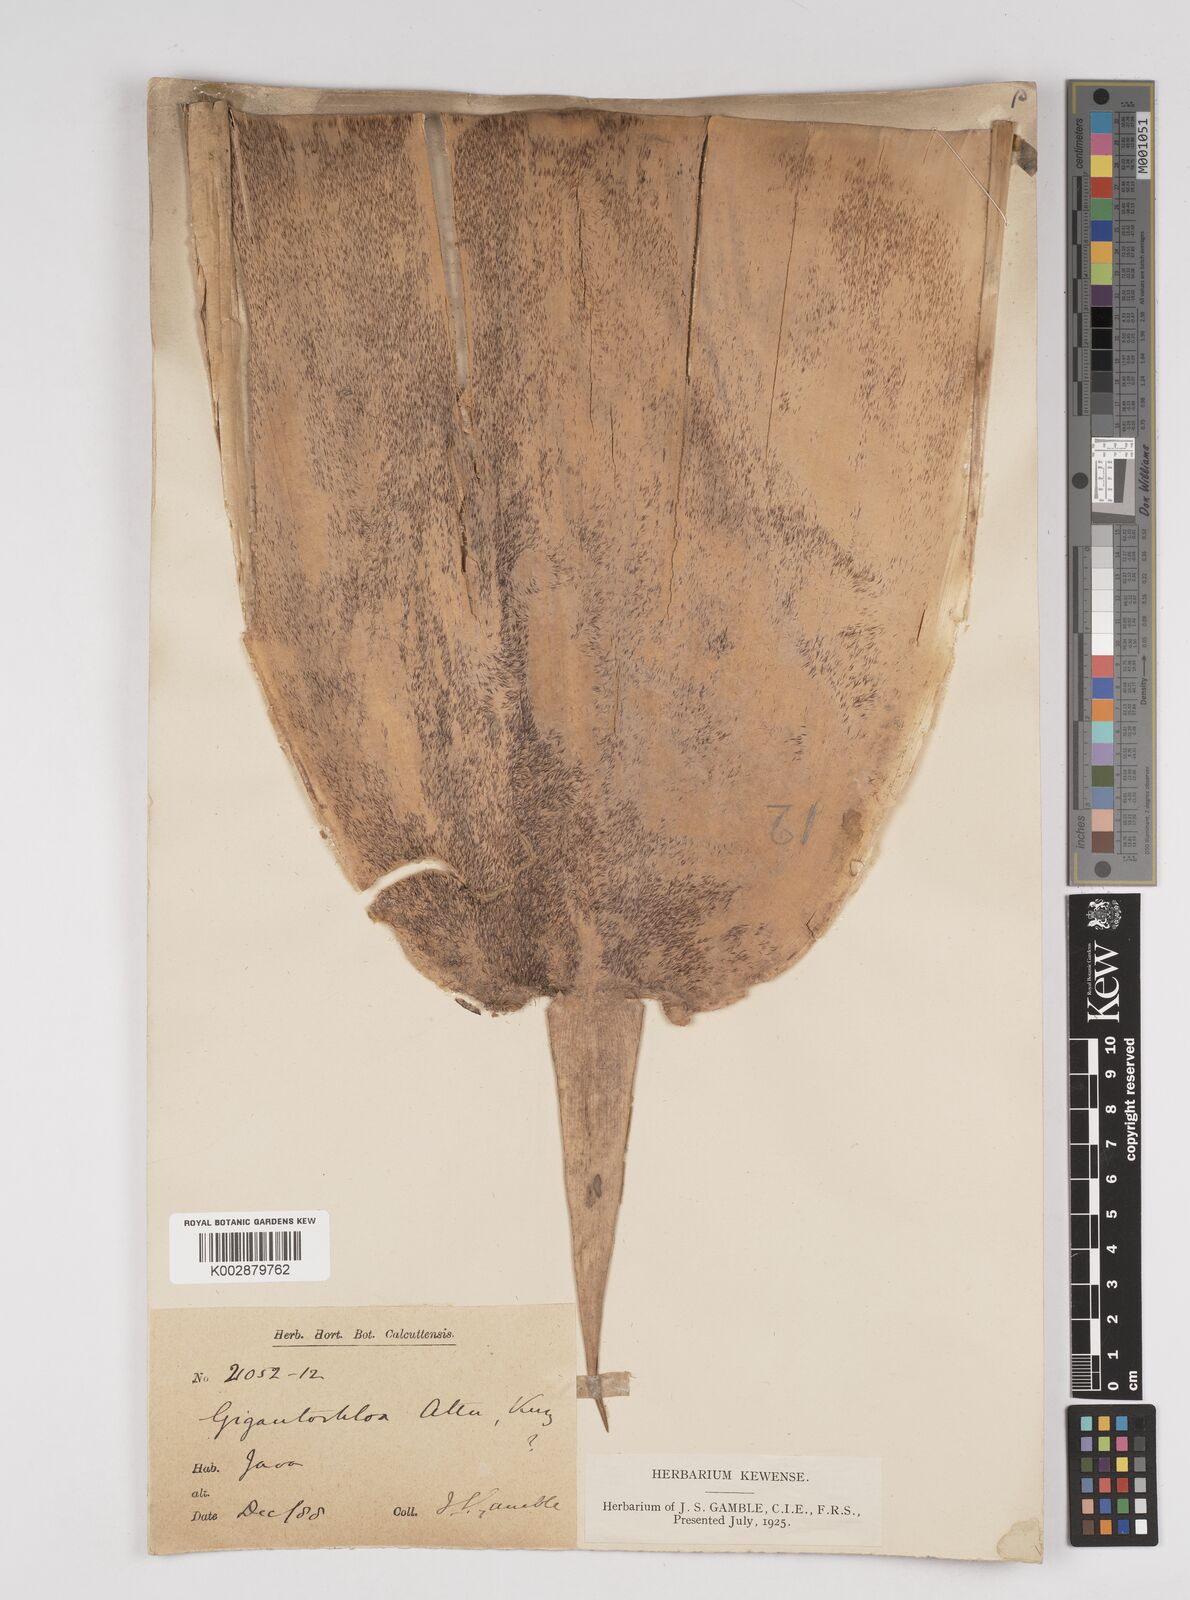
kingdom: Plantae
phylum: Tracheophyta
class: Liliopsida
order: Poales
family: Poaceae
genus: Gigantochloa
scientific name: Gigantochloa atter
